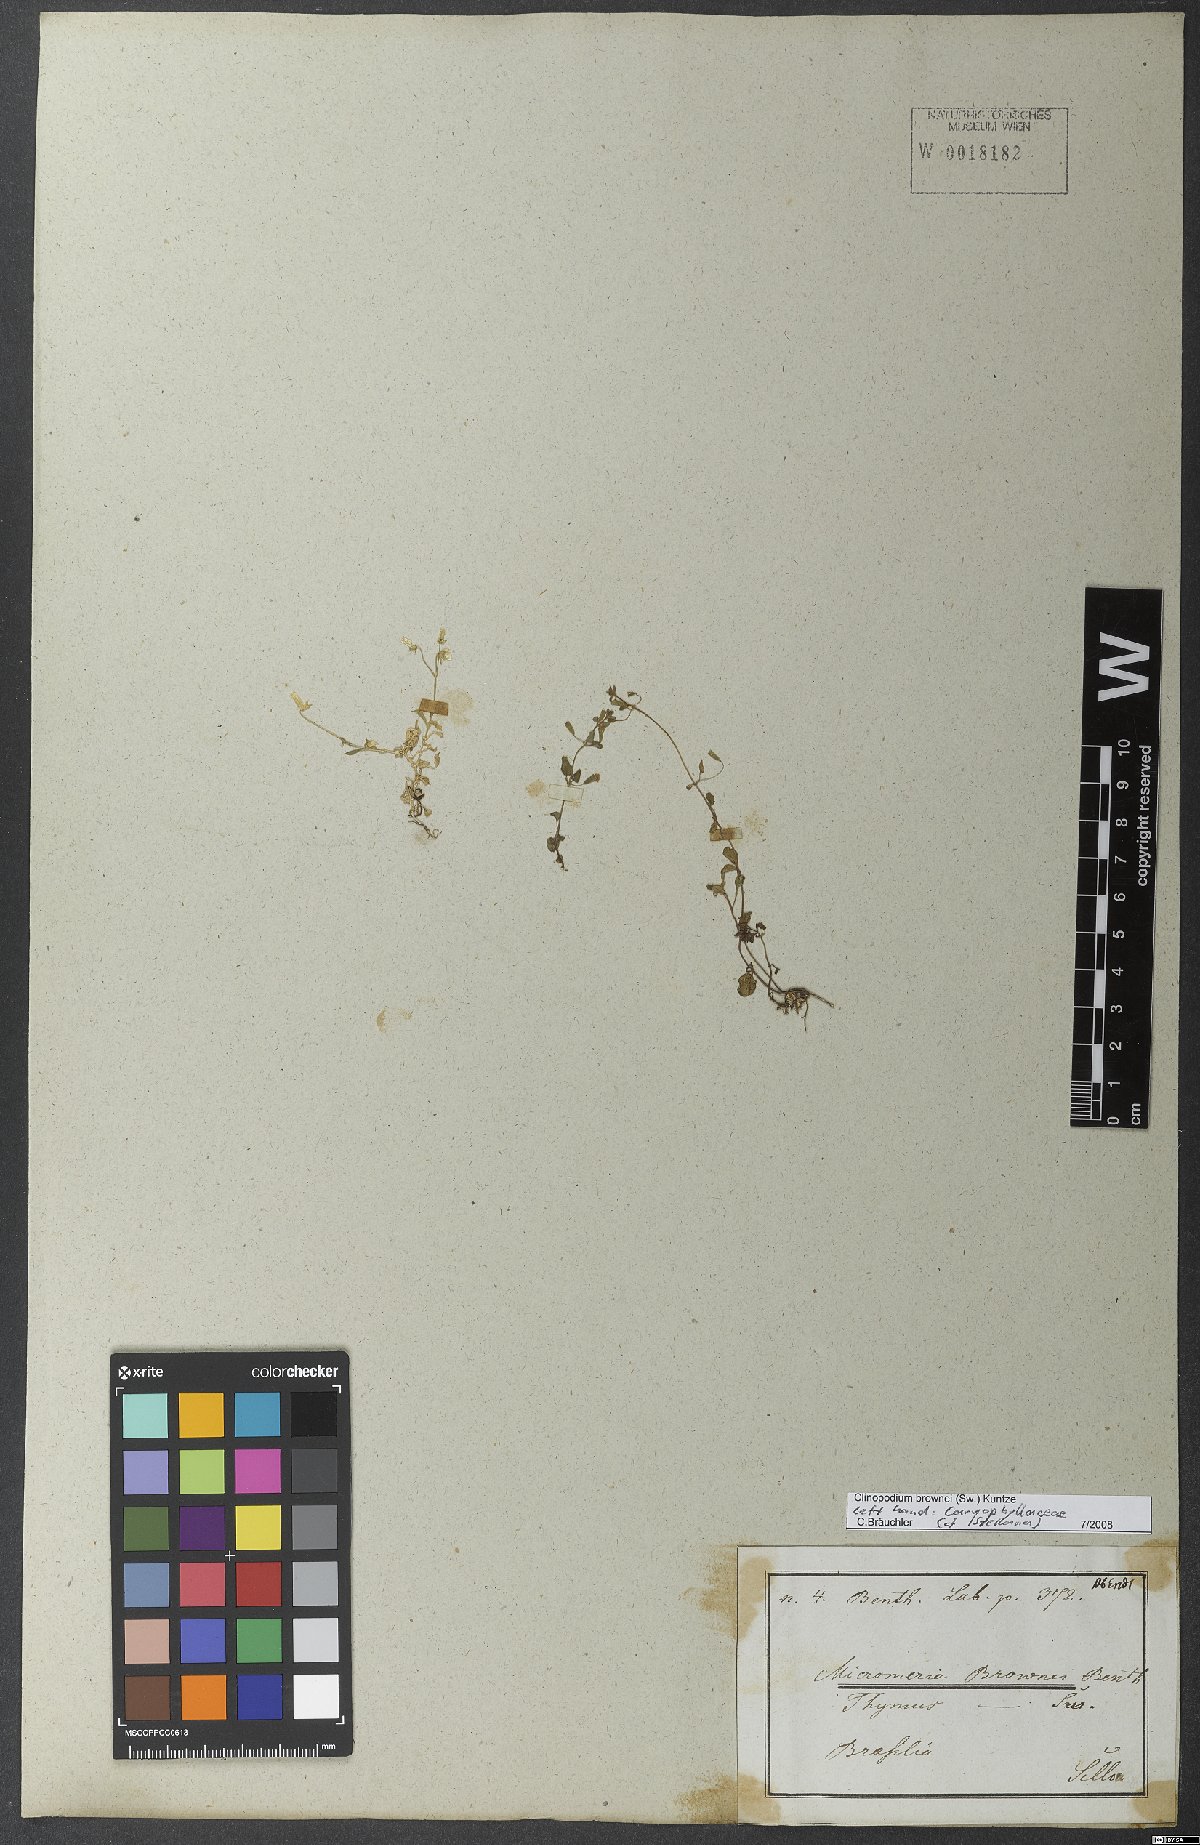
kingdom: Plantae
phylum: Tracheophyta
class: Magnoliopsida
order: Lamiales
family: Lamiaceae
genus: Clinopodium
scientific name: Clinopodium brownei
